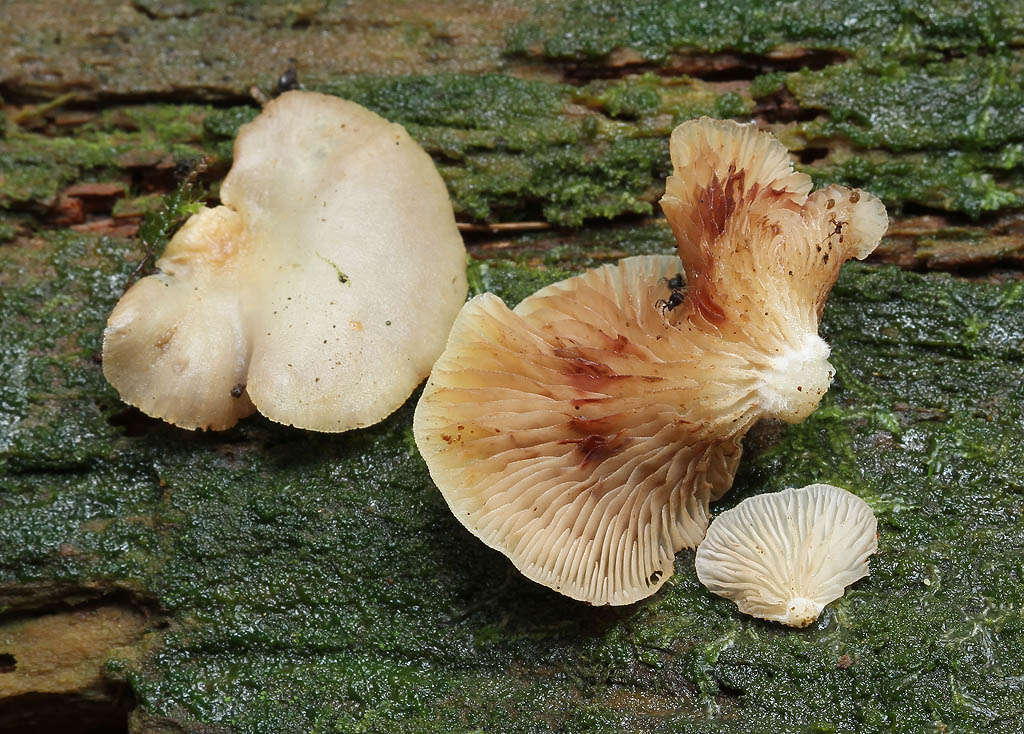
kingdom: Fungi
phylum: Basidiomycota
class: Agaricomycetes
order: Agaricales
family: Crepidotaceae
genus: Crepidotus
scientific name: Crepidotus applanatus
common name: tvefarvet muslingesvamp
